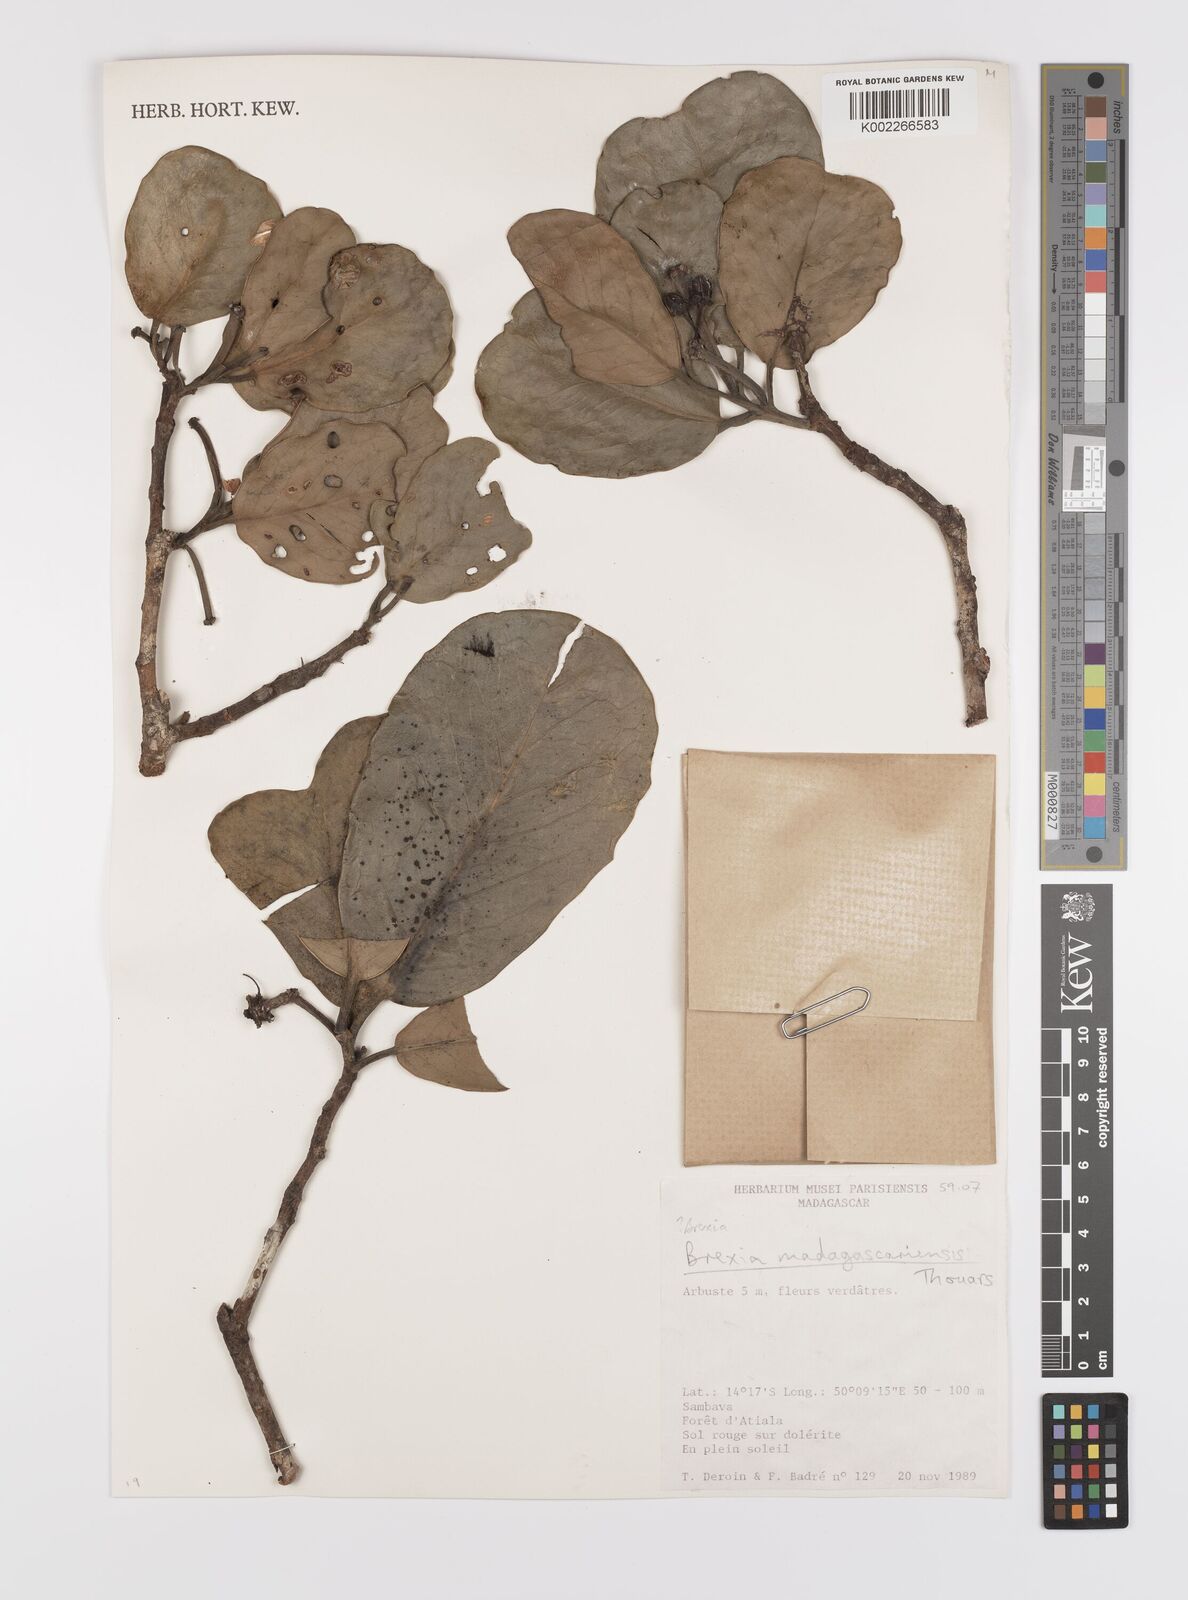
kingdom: Plantae
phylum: Tracheophyta
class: Magnoliopsida
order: Celastrales
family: Celastraceae
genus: Brexia
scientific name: Brexia madagascariensis
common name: Brexia
